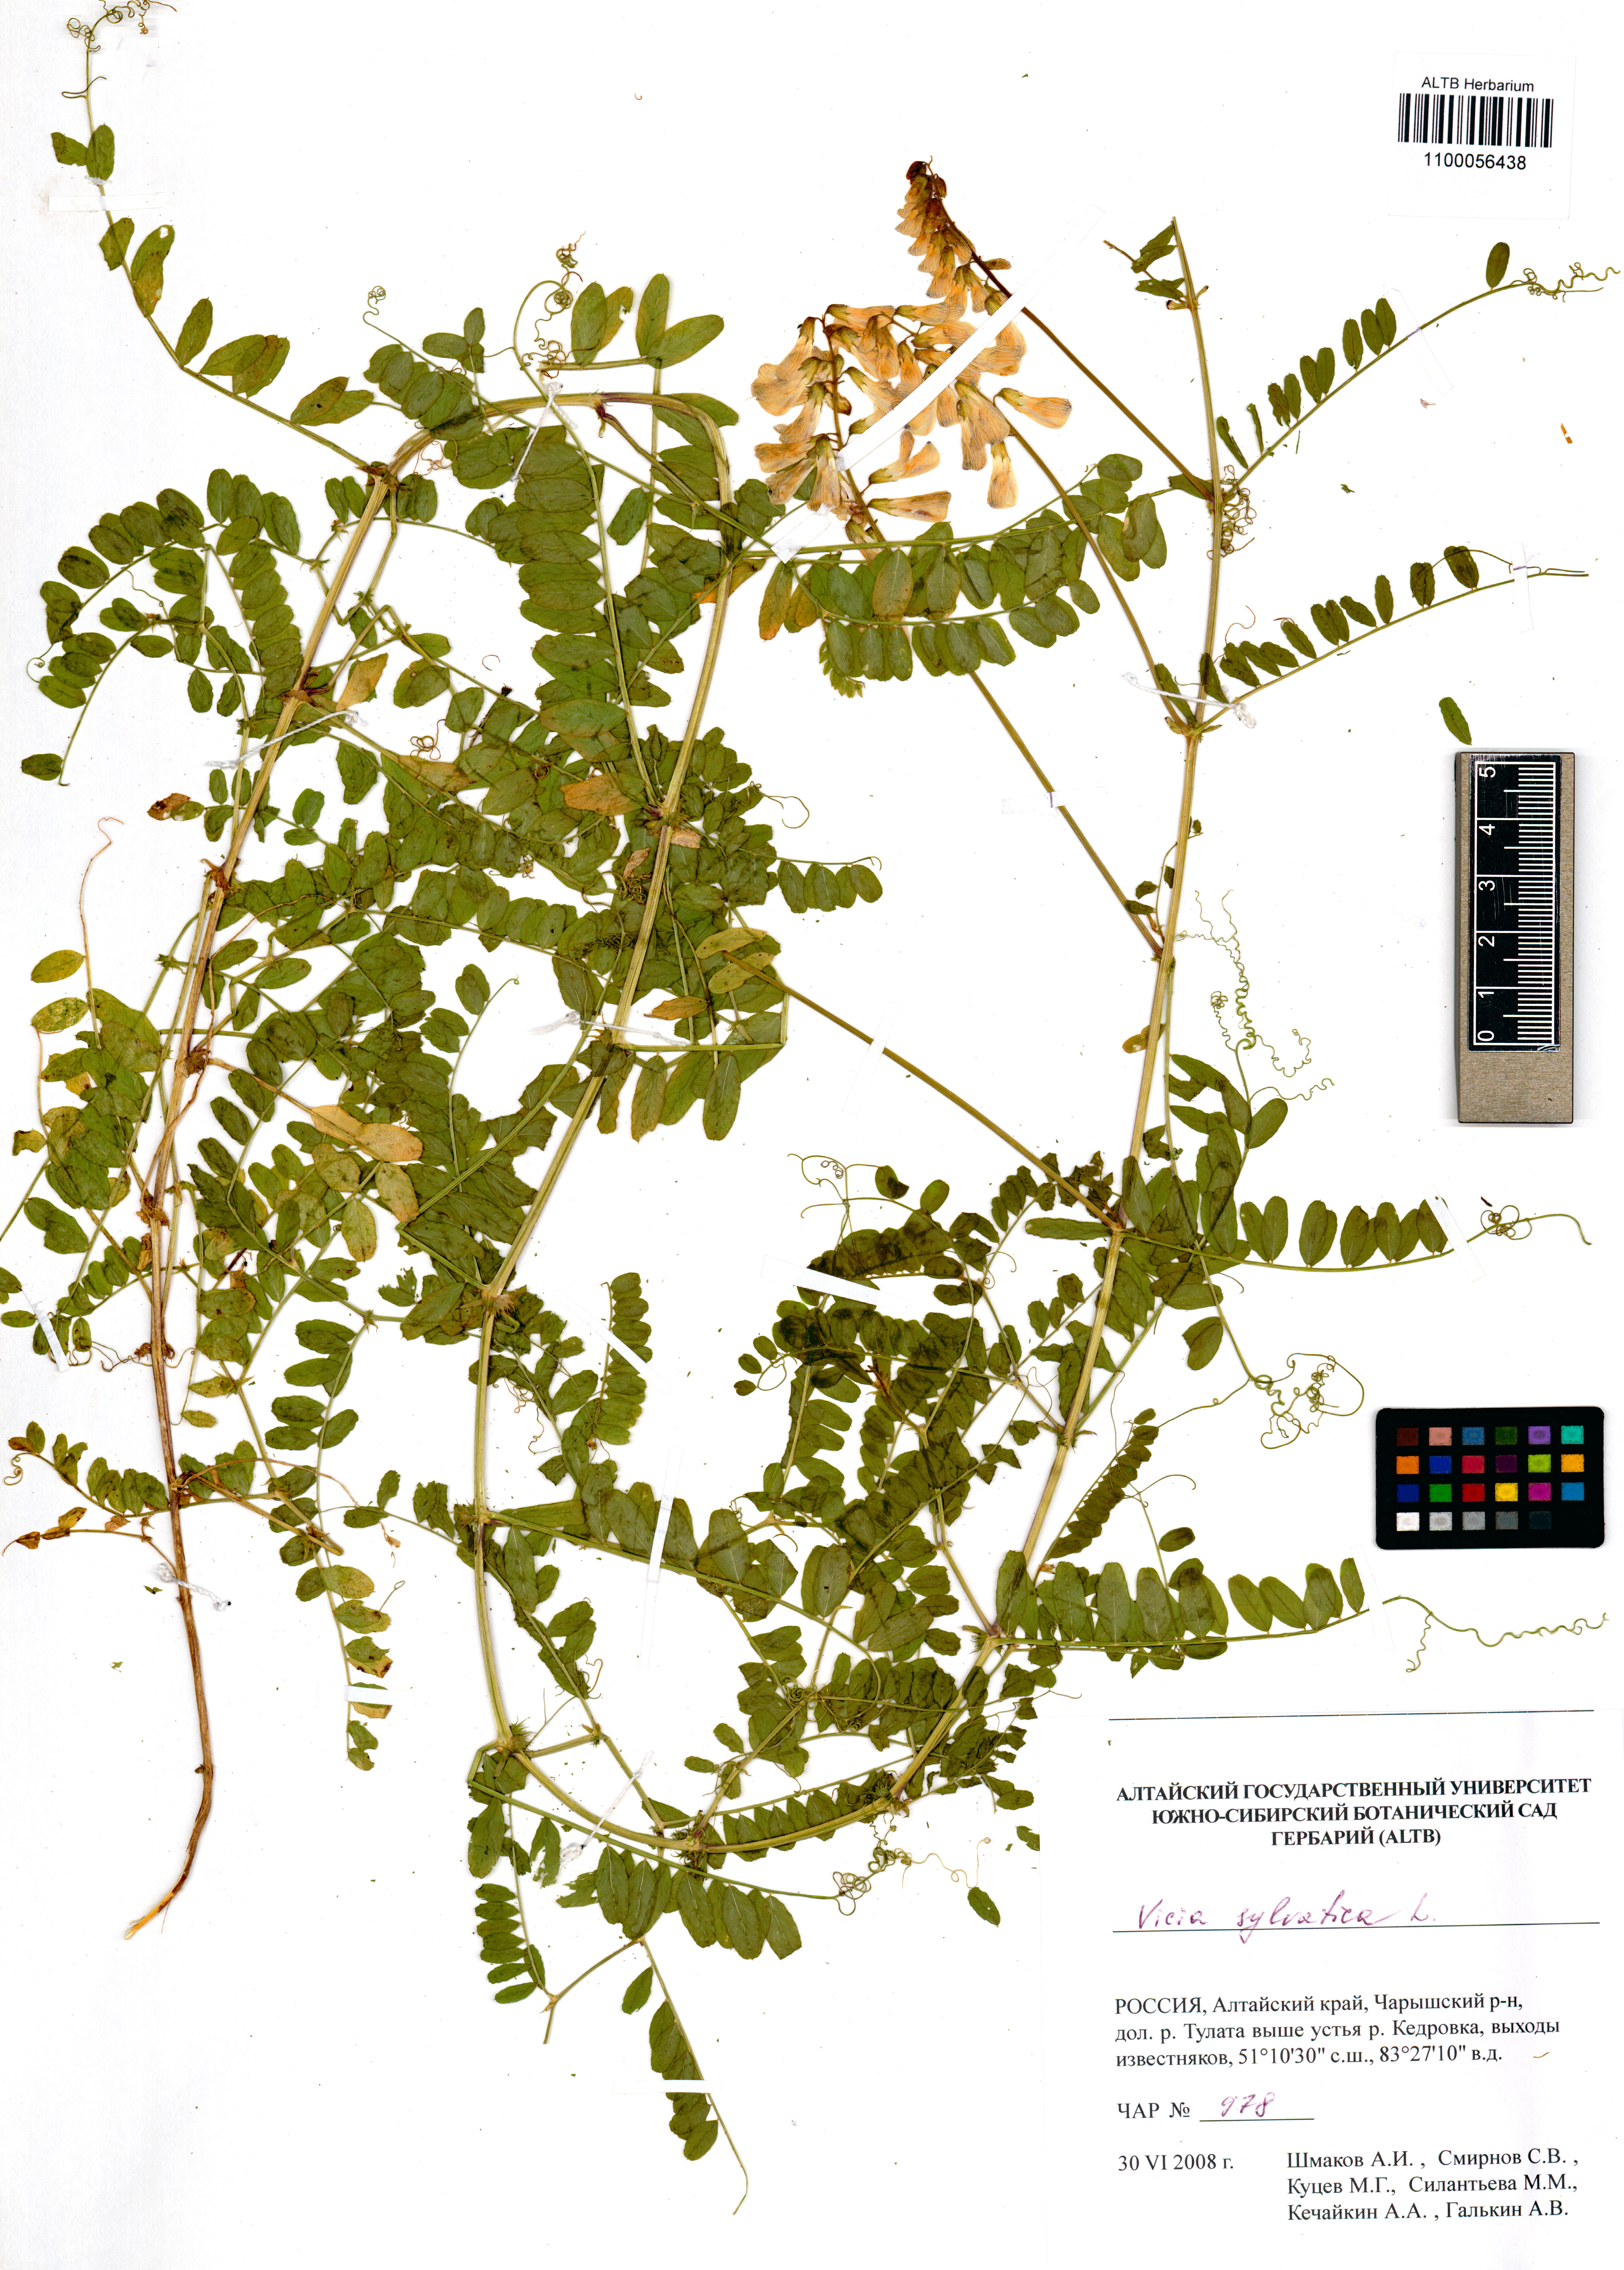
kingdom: Plantae
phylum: Tracheophyta
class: Magnoliopsida
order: Fabales
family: Fabaceae
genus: Vicia
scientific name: Vicia sylvatica
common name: Wood vetch
